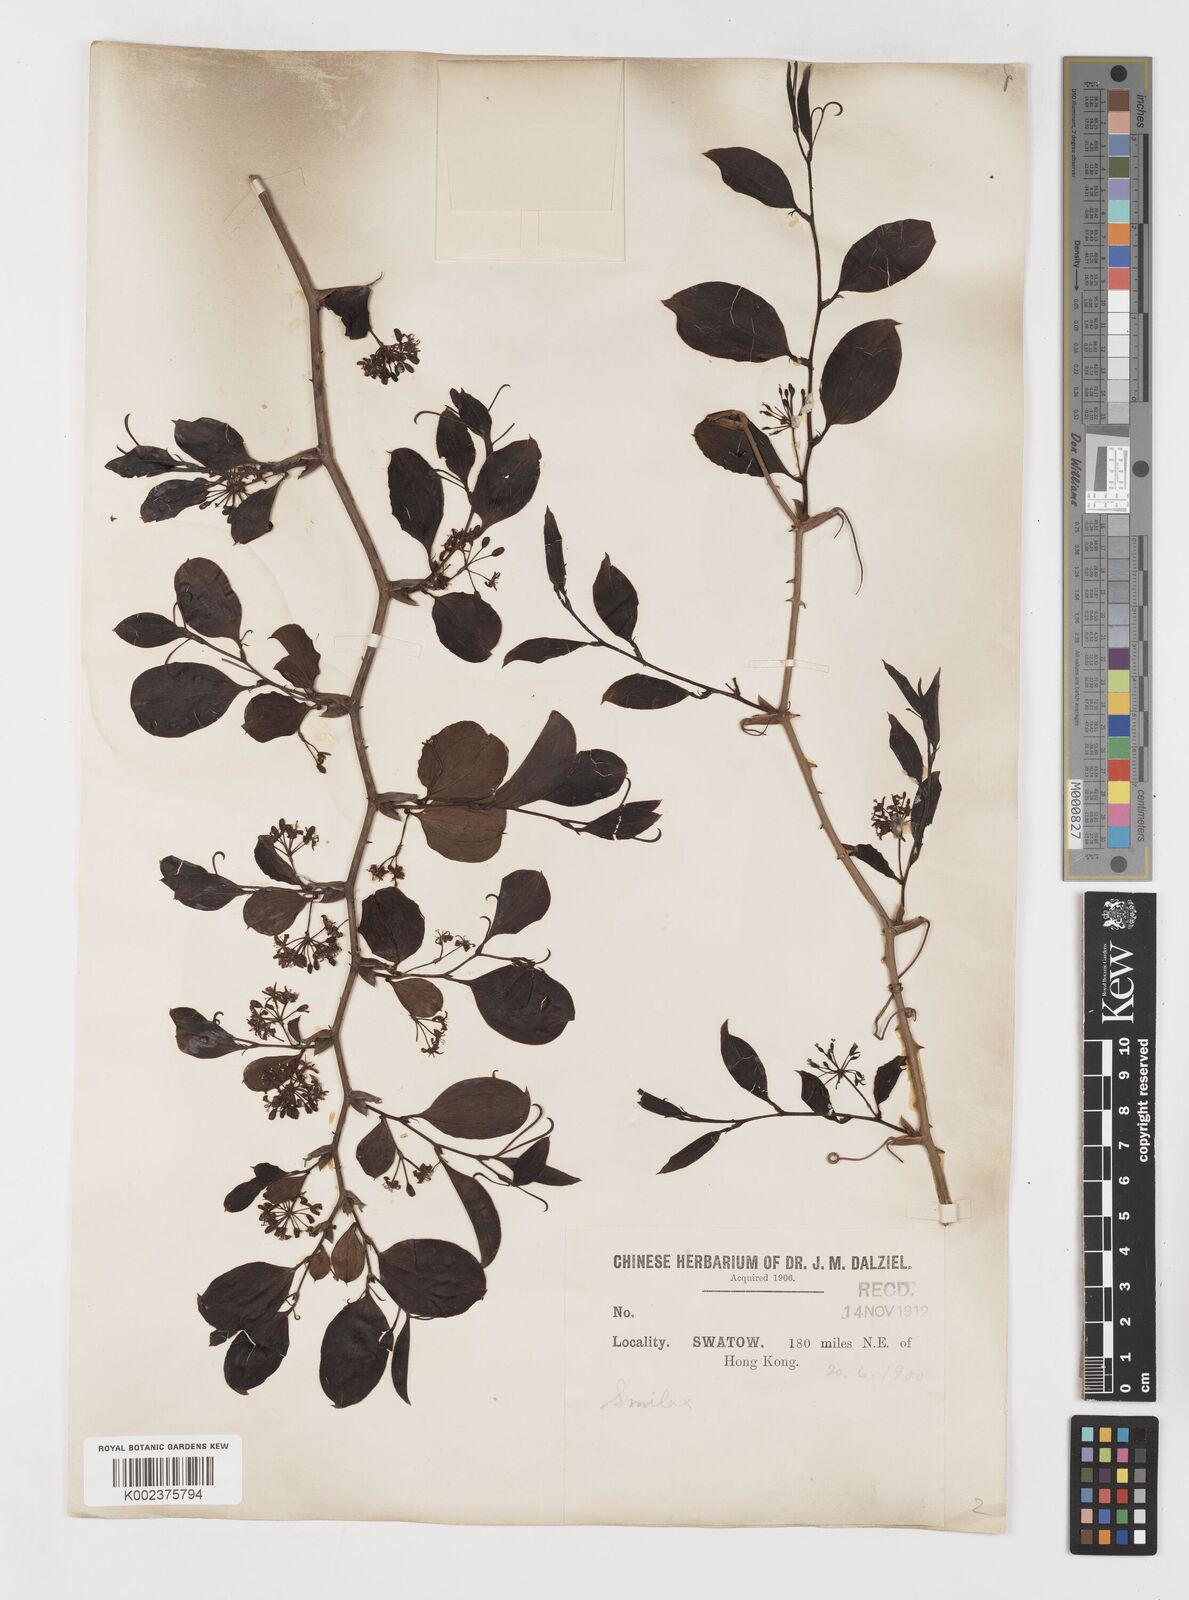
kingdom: Plantae
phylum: Tracheophyta
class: Liliopsida
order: Liliales
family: Smilacaceae
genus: Smilax
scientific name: Smilax china
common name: Chinaroot
